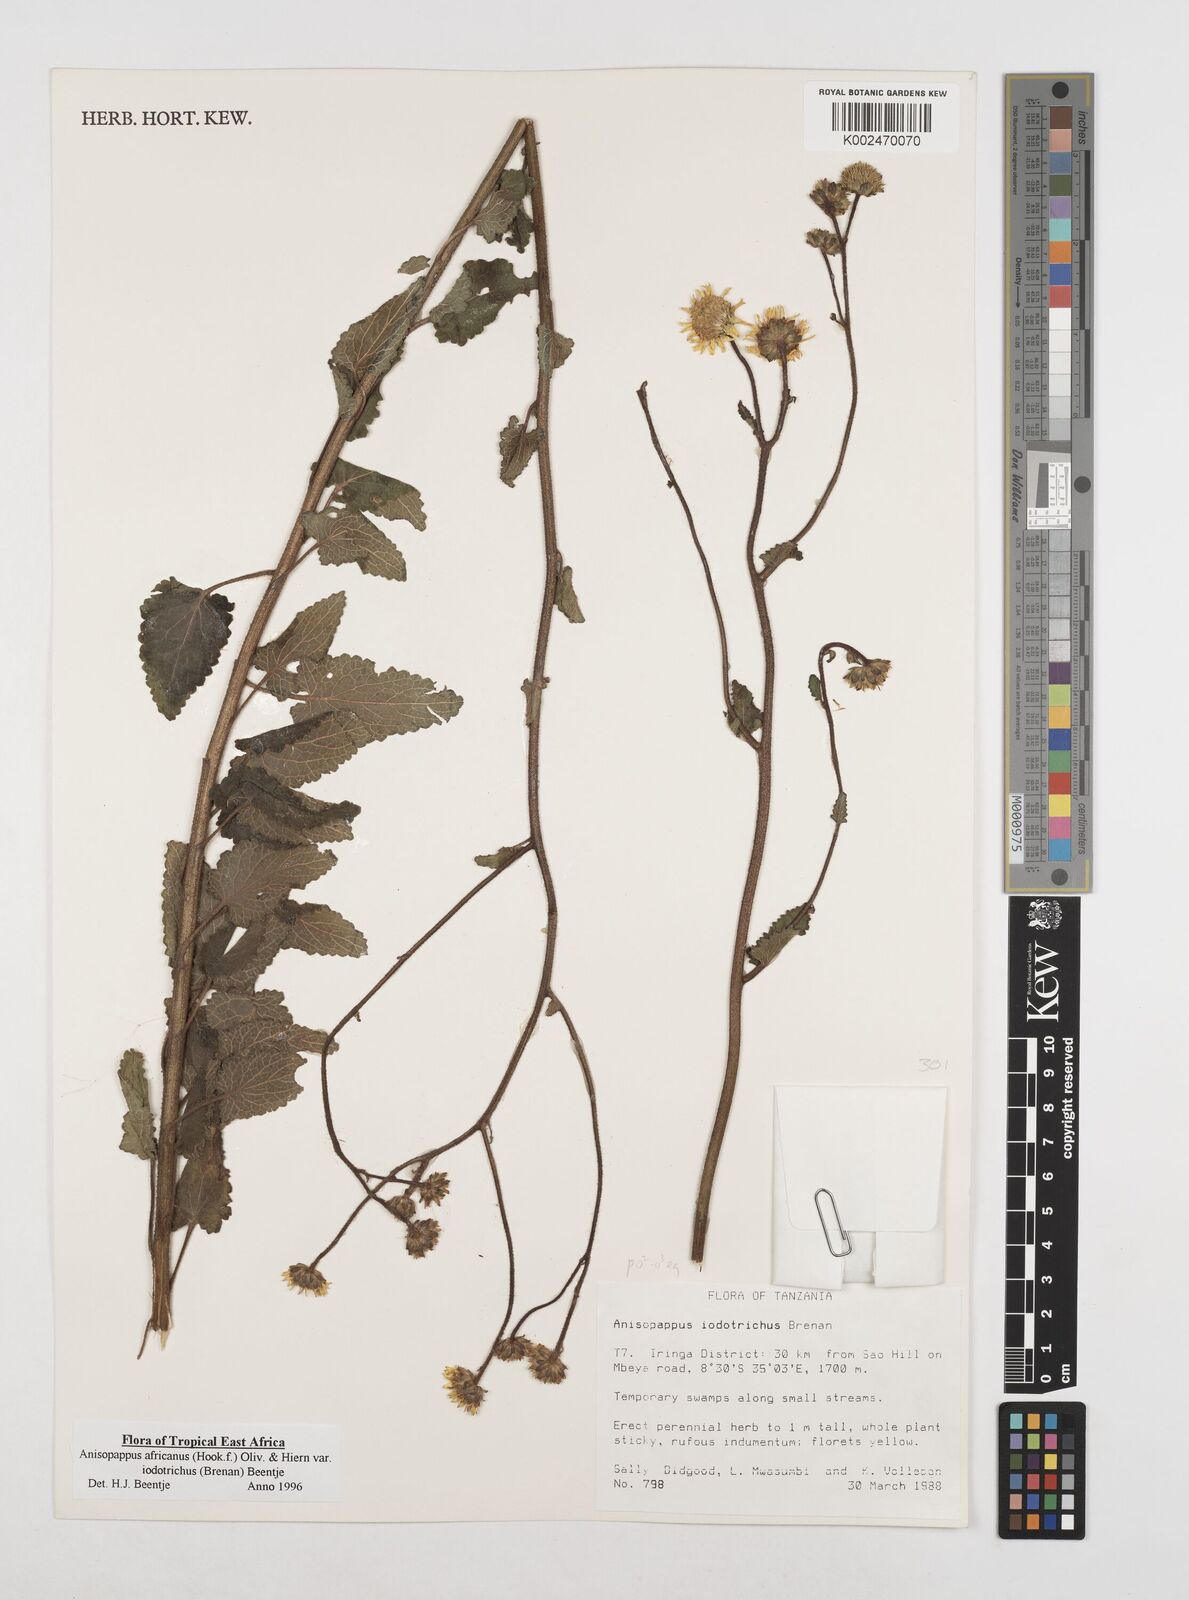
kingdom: Plantae
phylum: Tracheophyta
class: Magnoliopsida
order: Asterales
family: Asteraceae
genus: Anisopappus
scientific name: Anisopappus africanus
